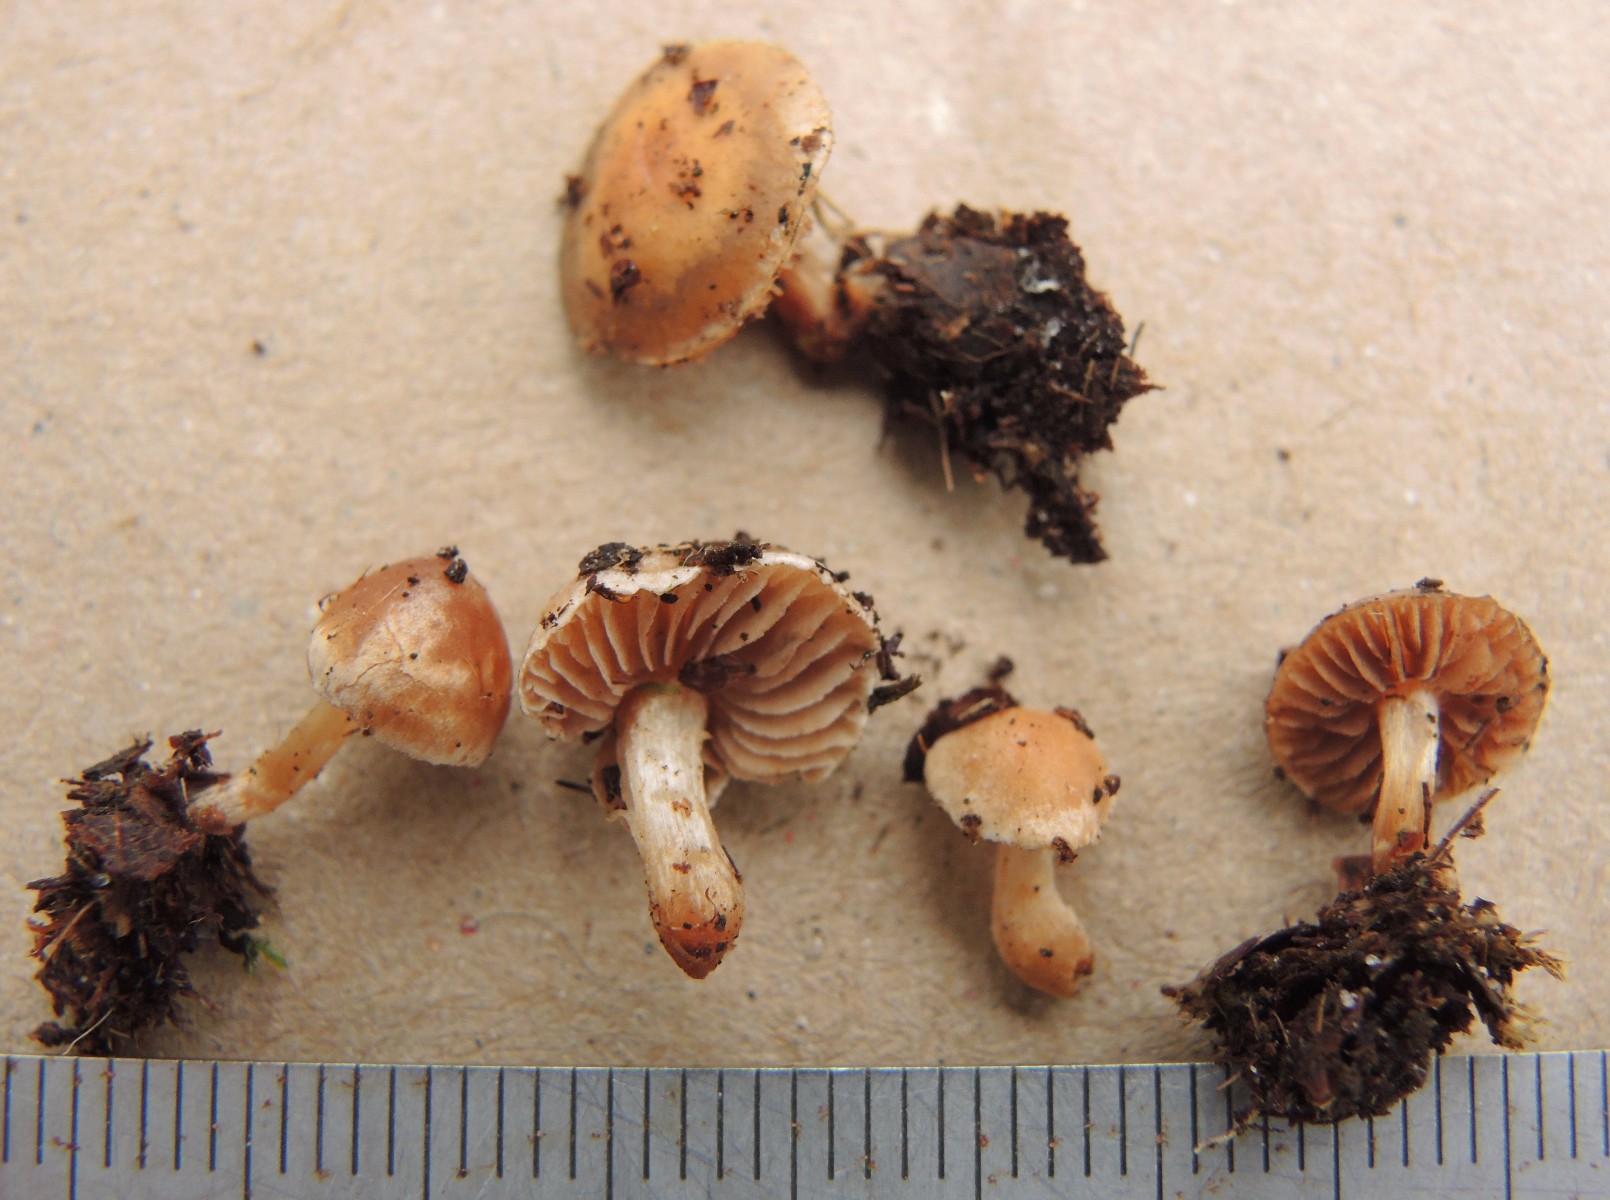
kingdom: Fungi
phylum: Basidiomycota
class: Agaricomycetes
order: Agaricales
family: Hymenogastraceae
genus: Hebeloma
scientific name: Hebeloma birrus
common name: rodslående tåreblad
